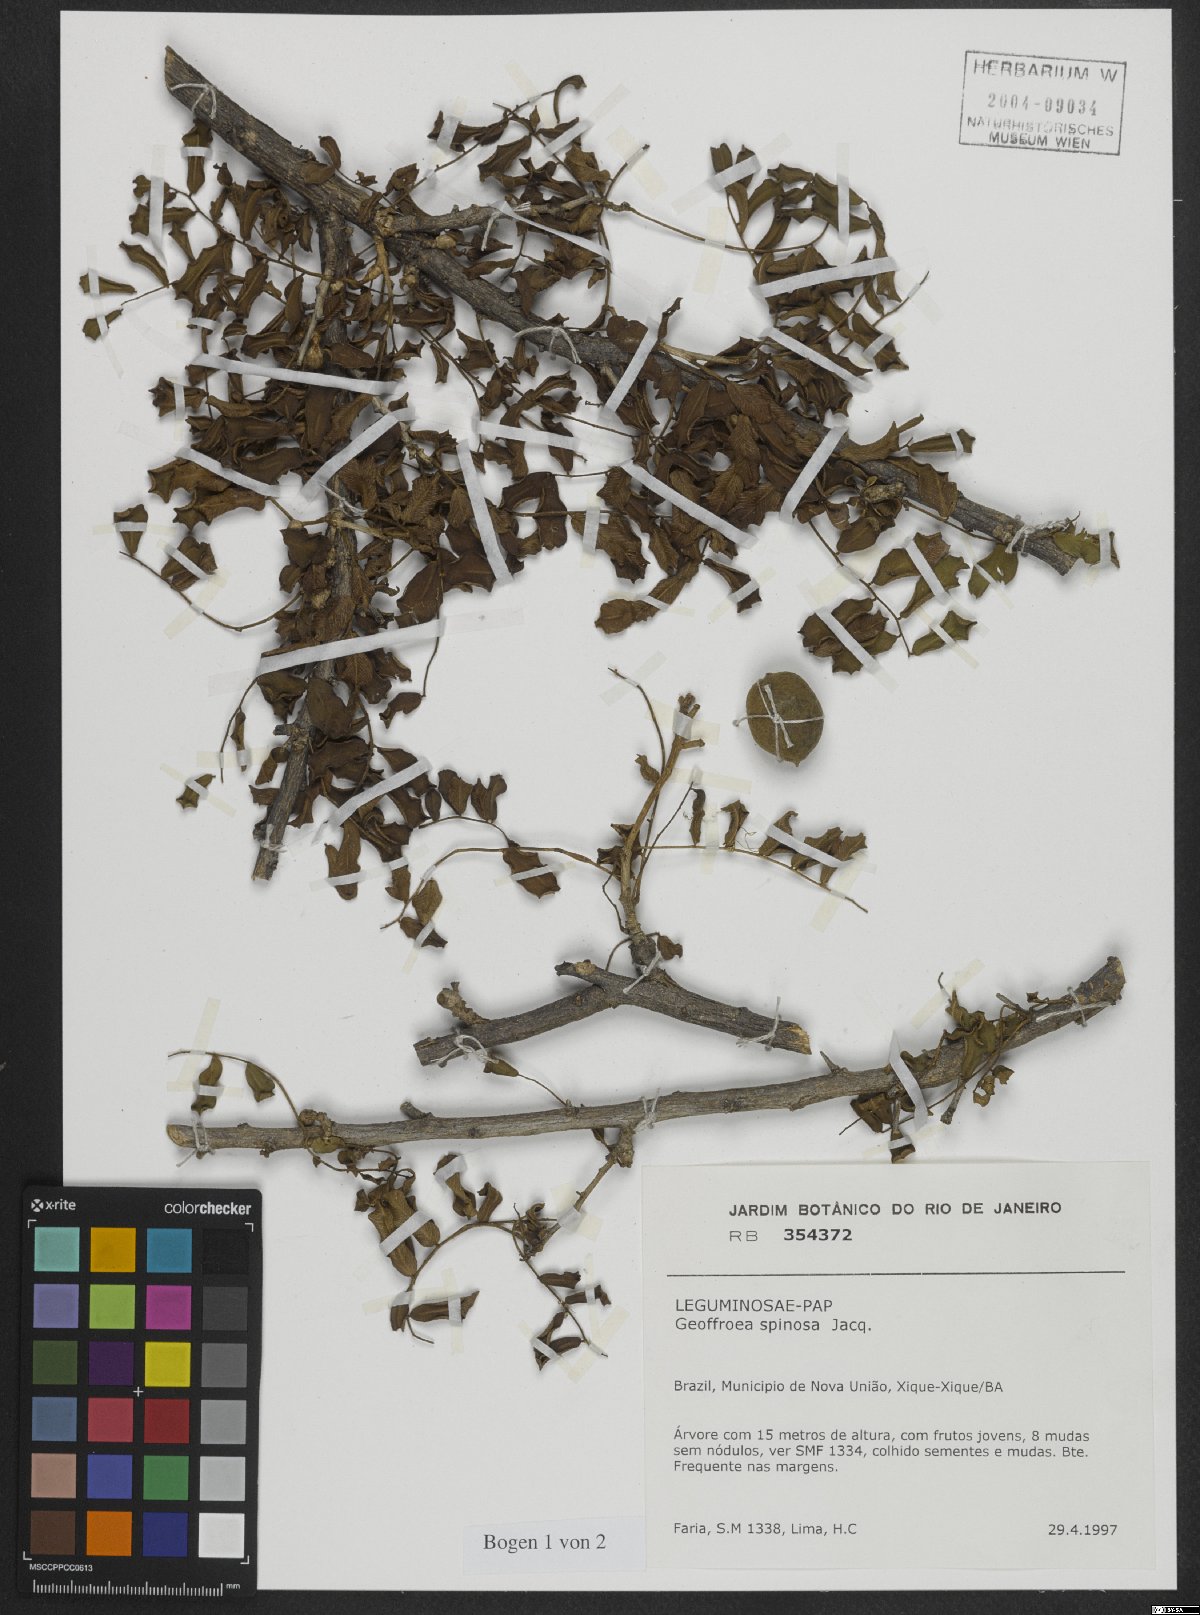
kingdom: Plantae
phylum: Tracheophyta
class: Magnoliopsida
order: Fabales
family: Fabaceae
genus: Geoffroea
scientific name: Geoffroea spinosa
